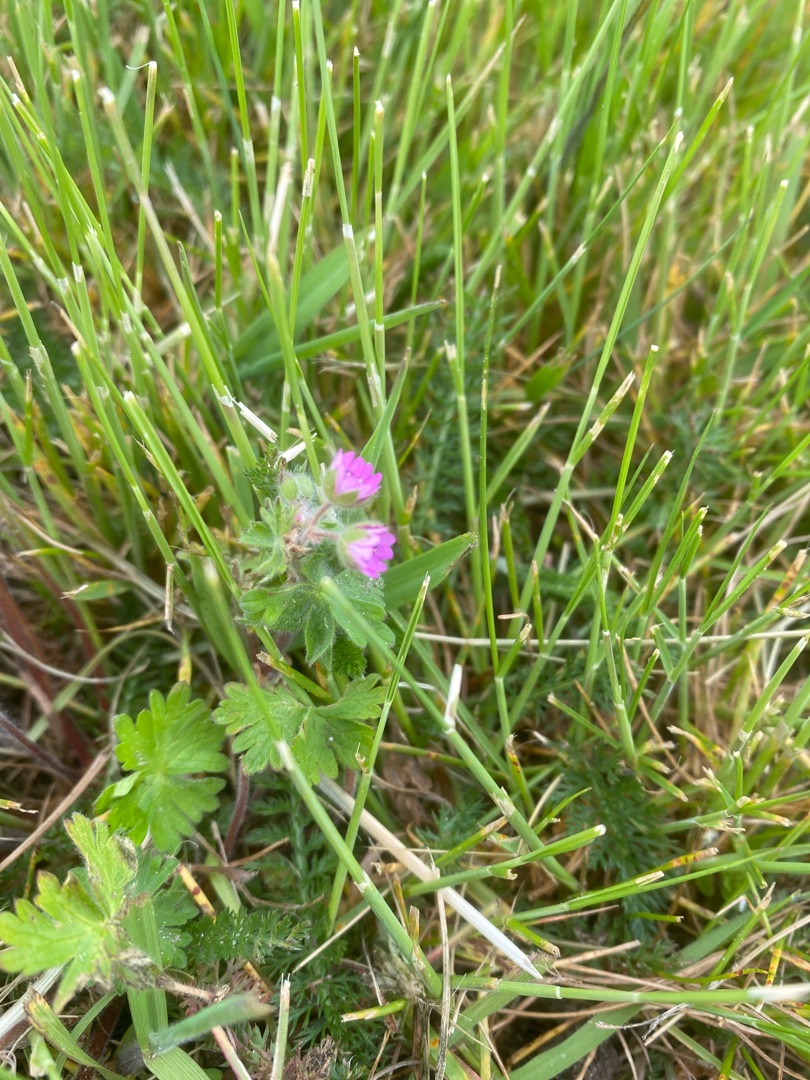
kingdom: Plantae
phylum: Tracheophyta
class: Magnoliopsida
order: Geraniales
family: Geraniaceae
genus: Geranium
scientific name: Geranium molle
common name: Blød storkenæb
